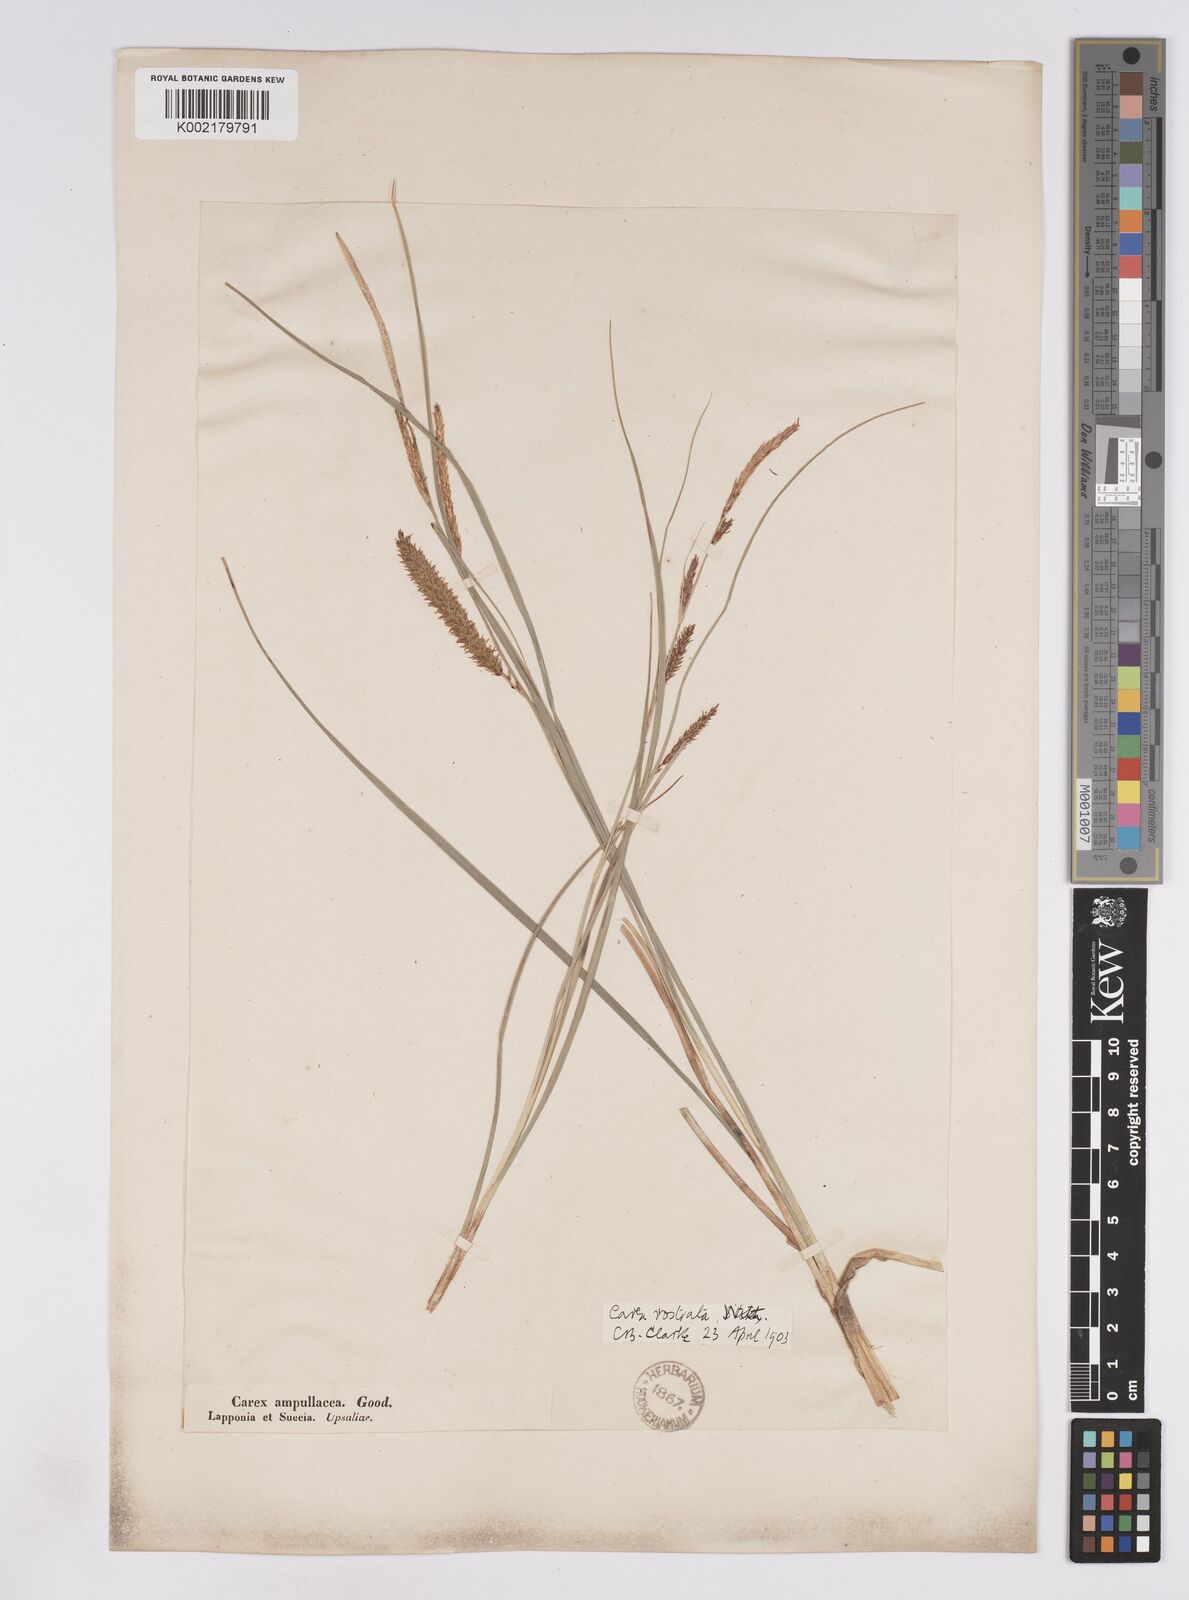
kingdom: Plantae
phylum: Tracheophyta
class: Liliopsida
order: Poales
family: Cyperaceae
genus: Carex
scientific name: Carex rostrata
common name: Bottle sedge
